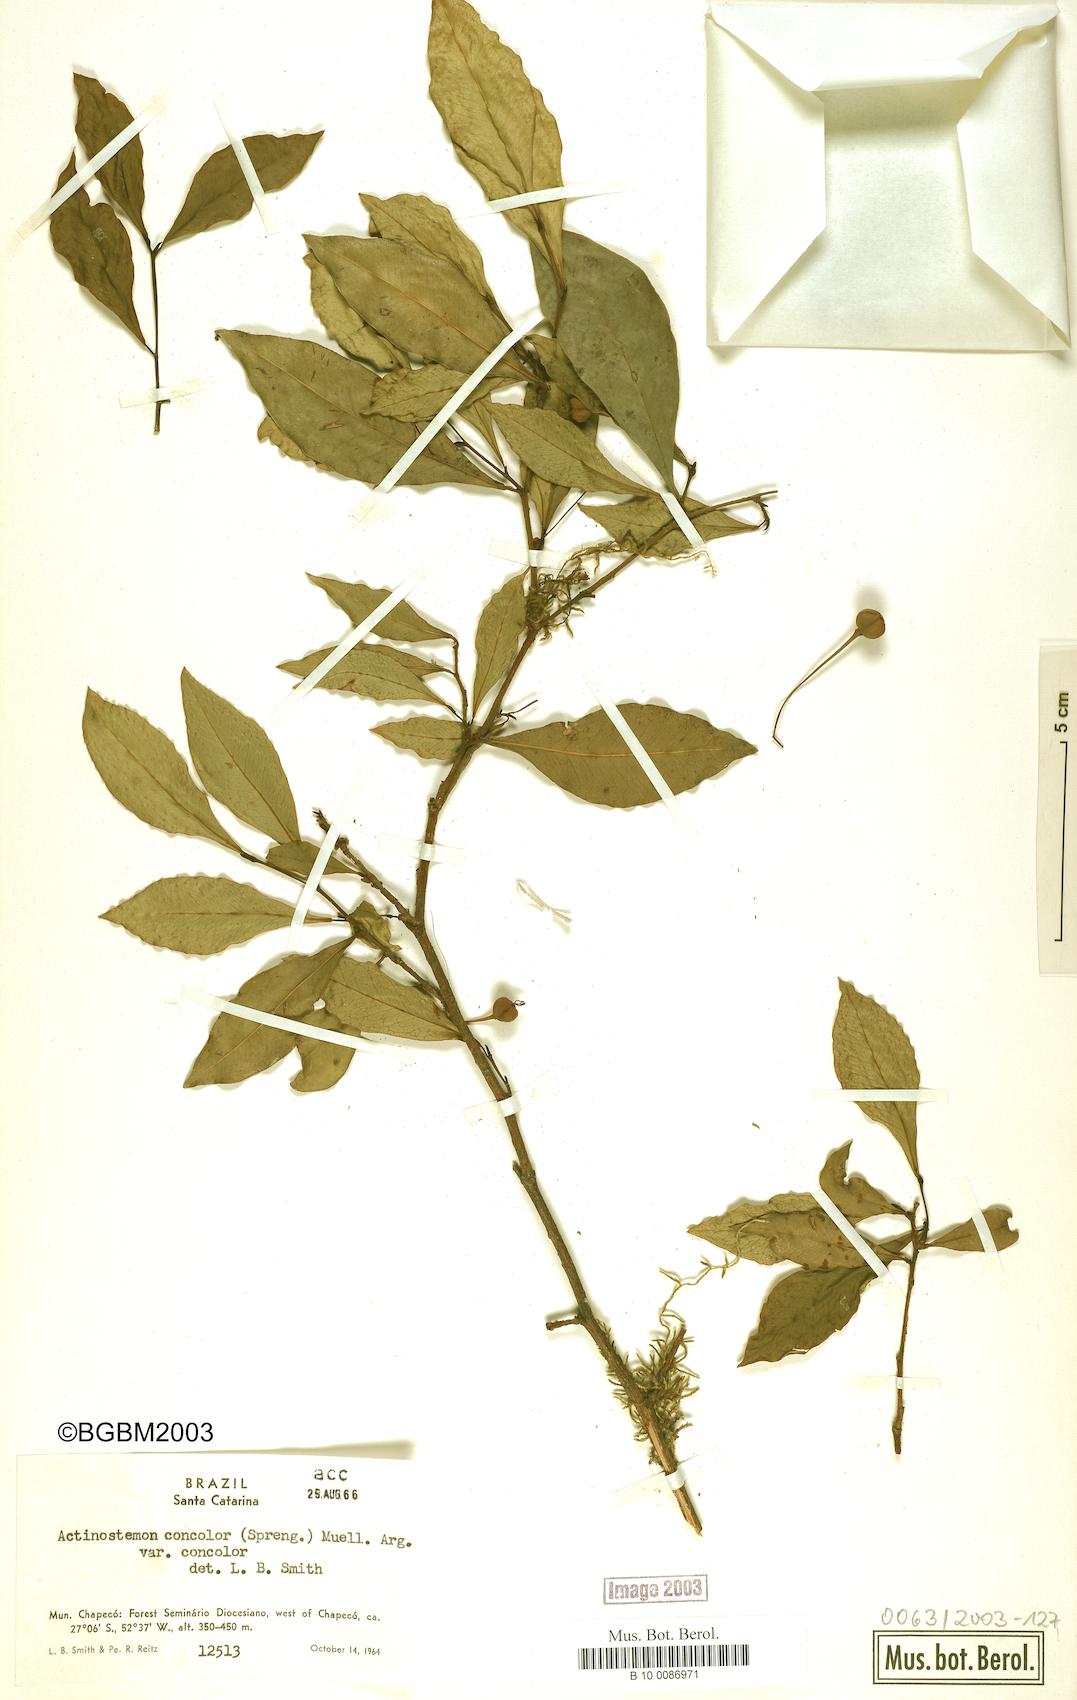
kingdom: Plantae
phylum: Tracheophyta
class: Magnoliopsida
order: Malpighiales
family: Euphorbiaceae
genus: Actinostemon
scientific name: Actinostemon concolor
